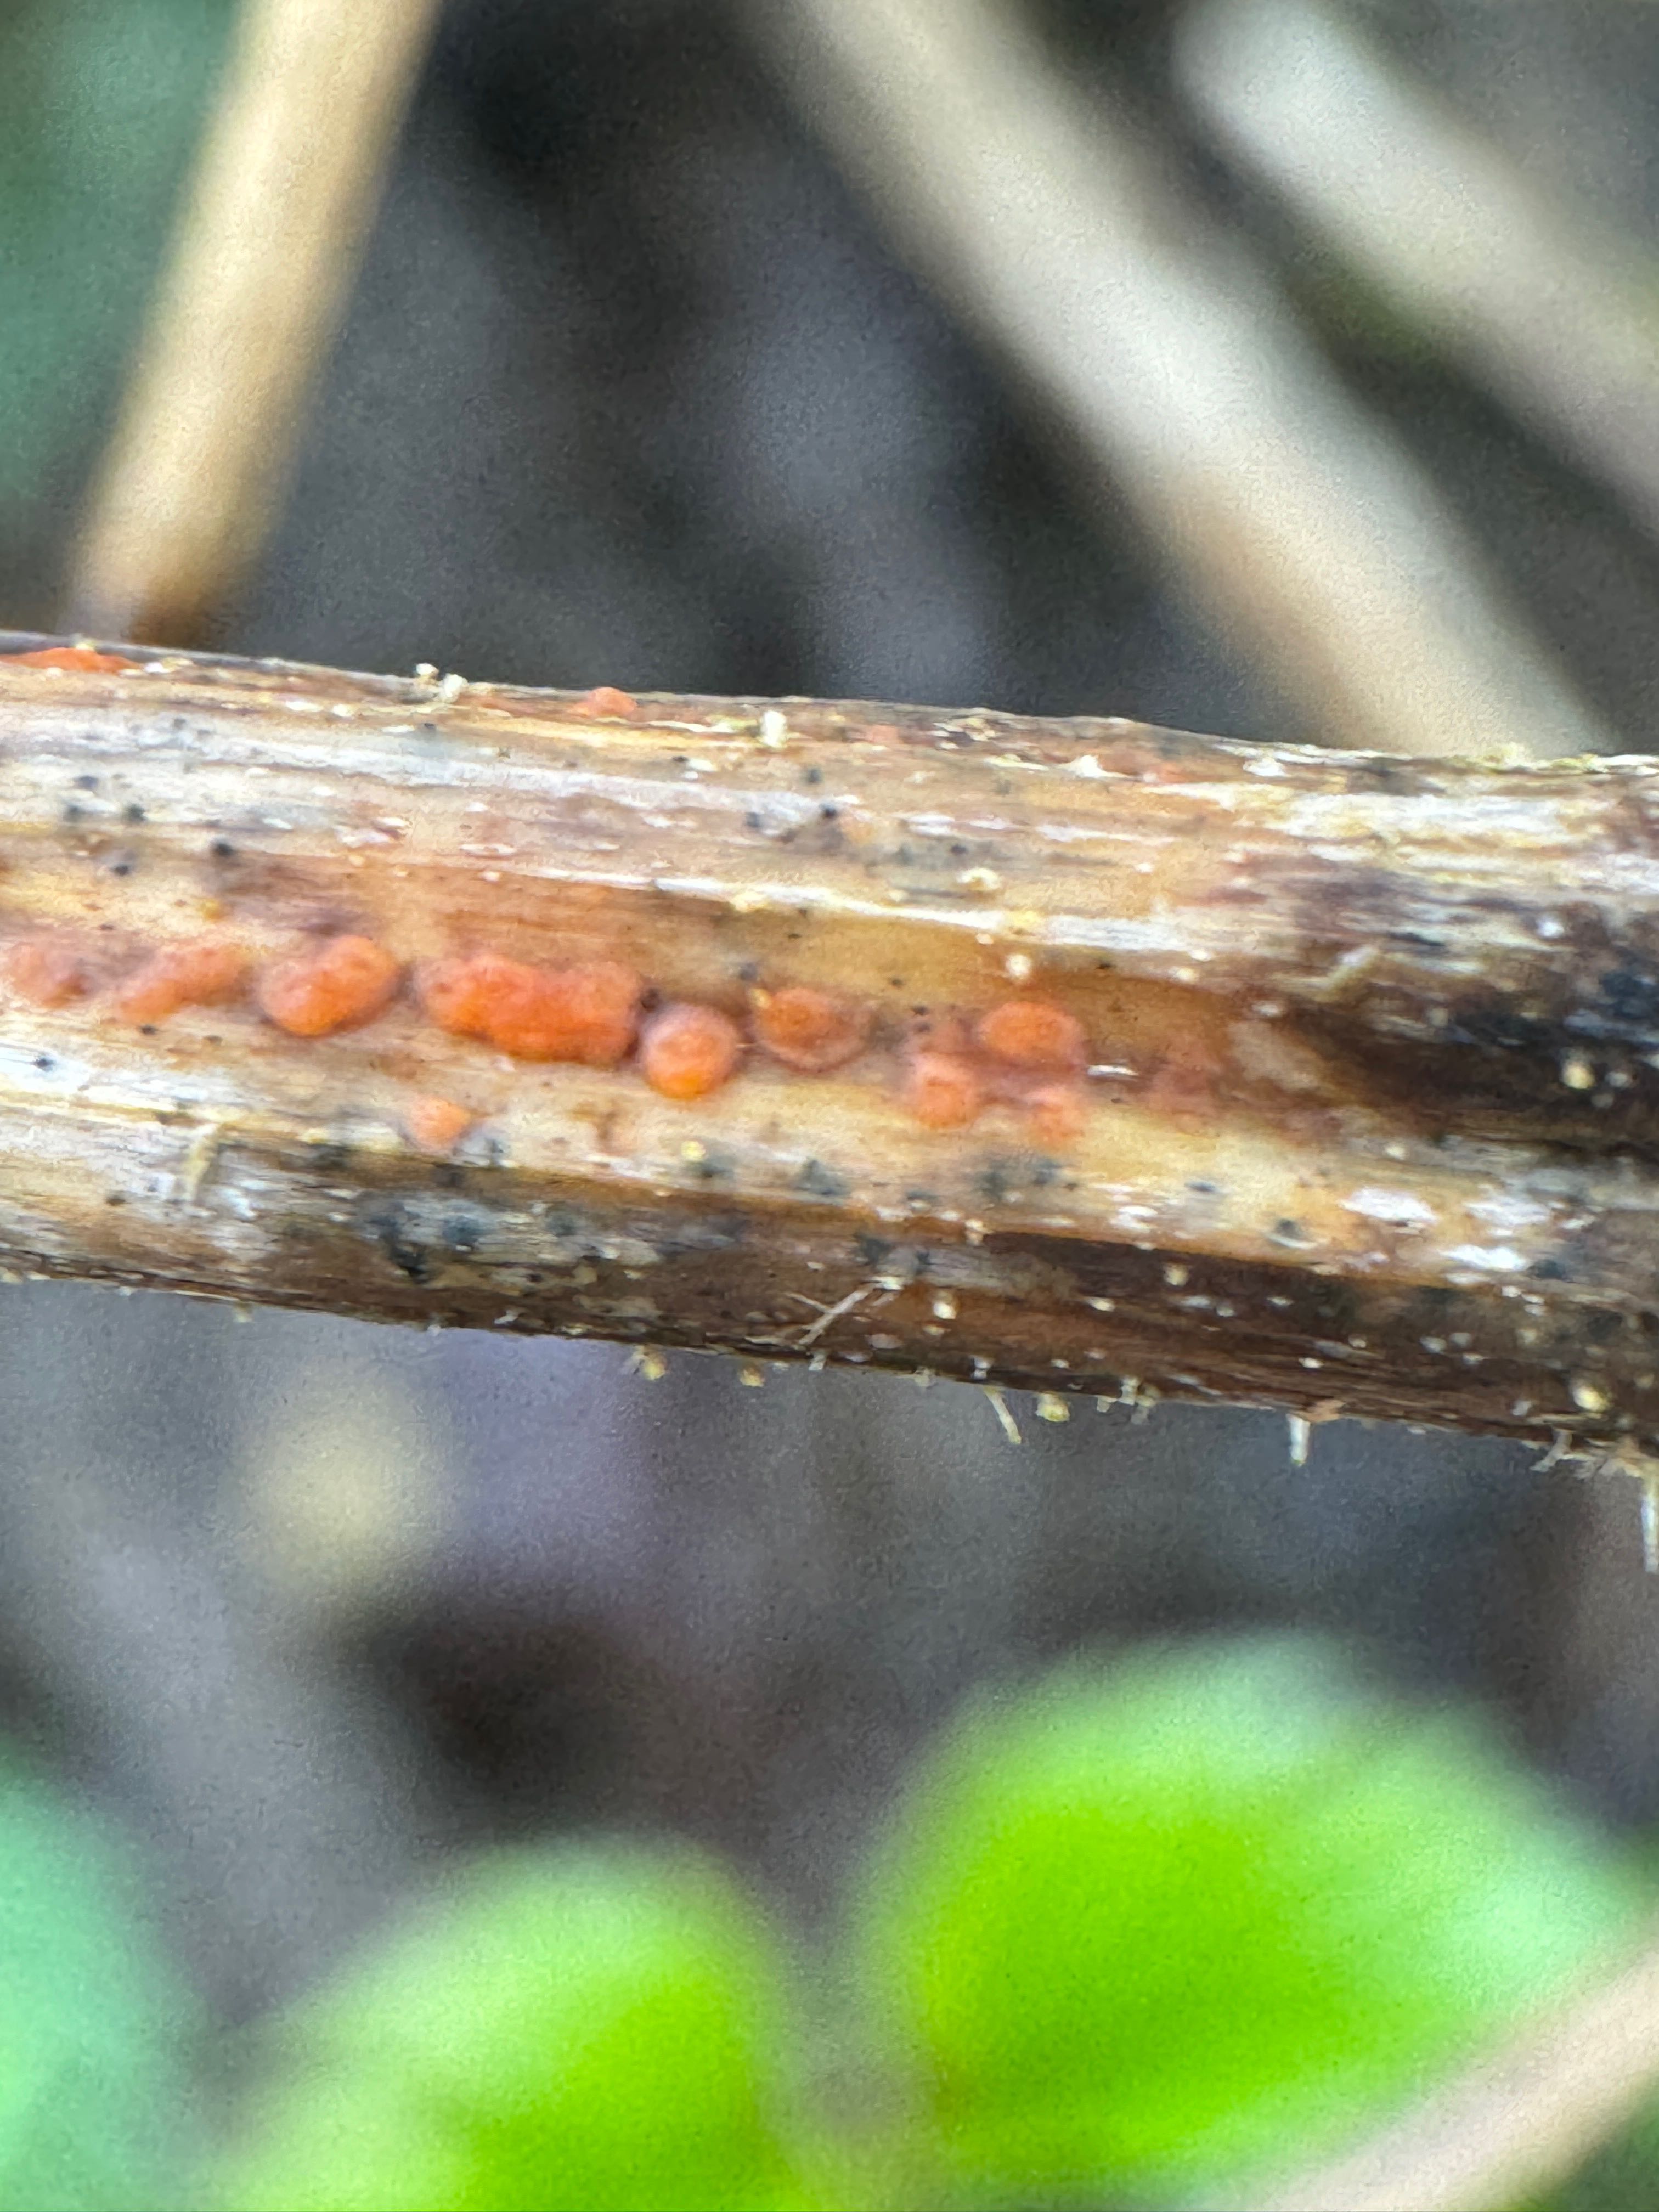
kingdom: Fungi
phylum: Ascomycota
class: Leotiomycetes
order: Helotiales
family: Calloriaceae
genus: Calloria
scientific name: Calloria urticae
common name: nælde-orangeskive
